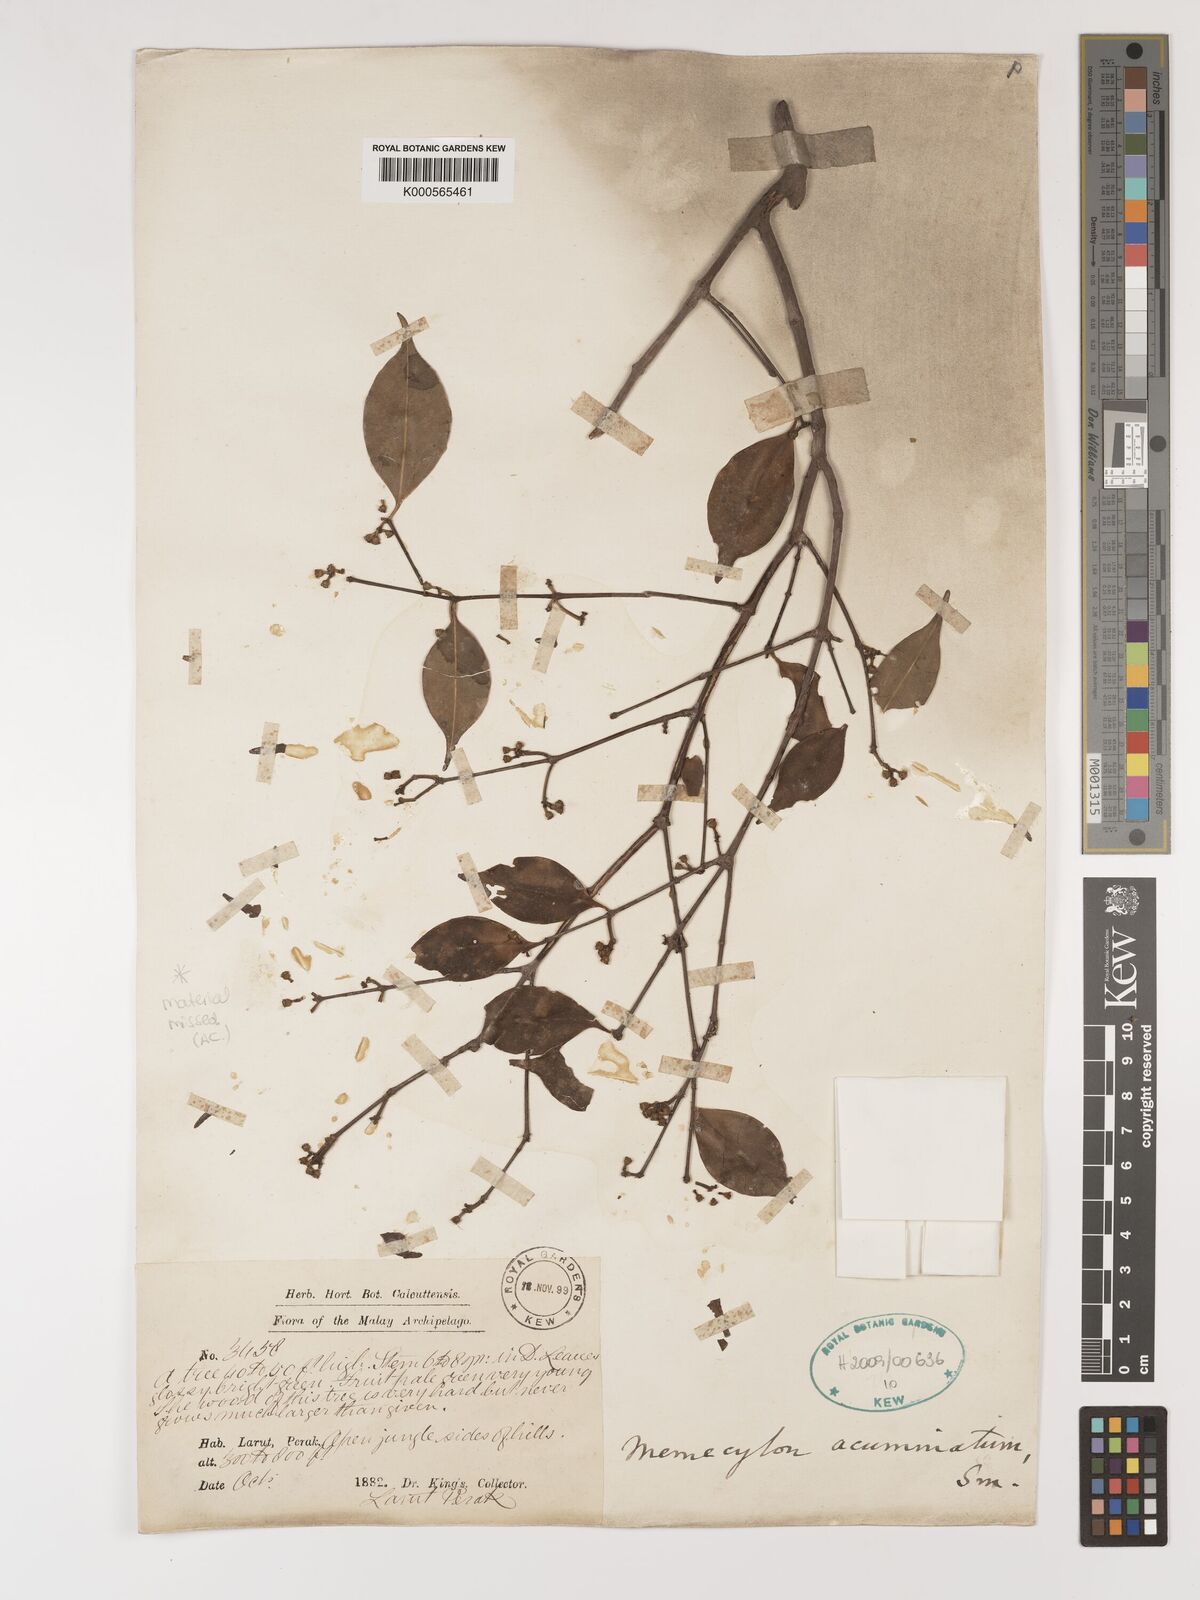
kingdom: Plantae
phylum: Tracheophyta
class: Magnoliopsida
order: Myrtales
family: Melastomataceae
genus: Memecylon
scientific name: Memecylon acuminatum
